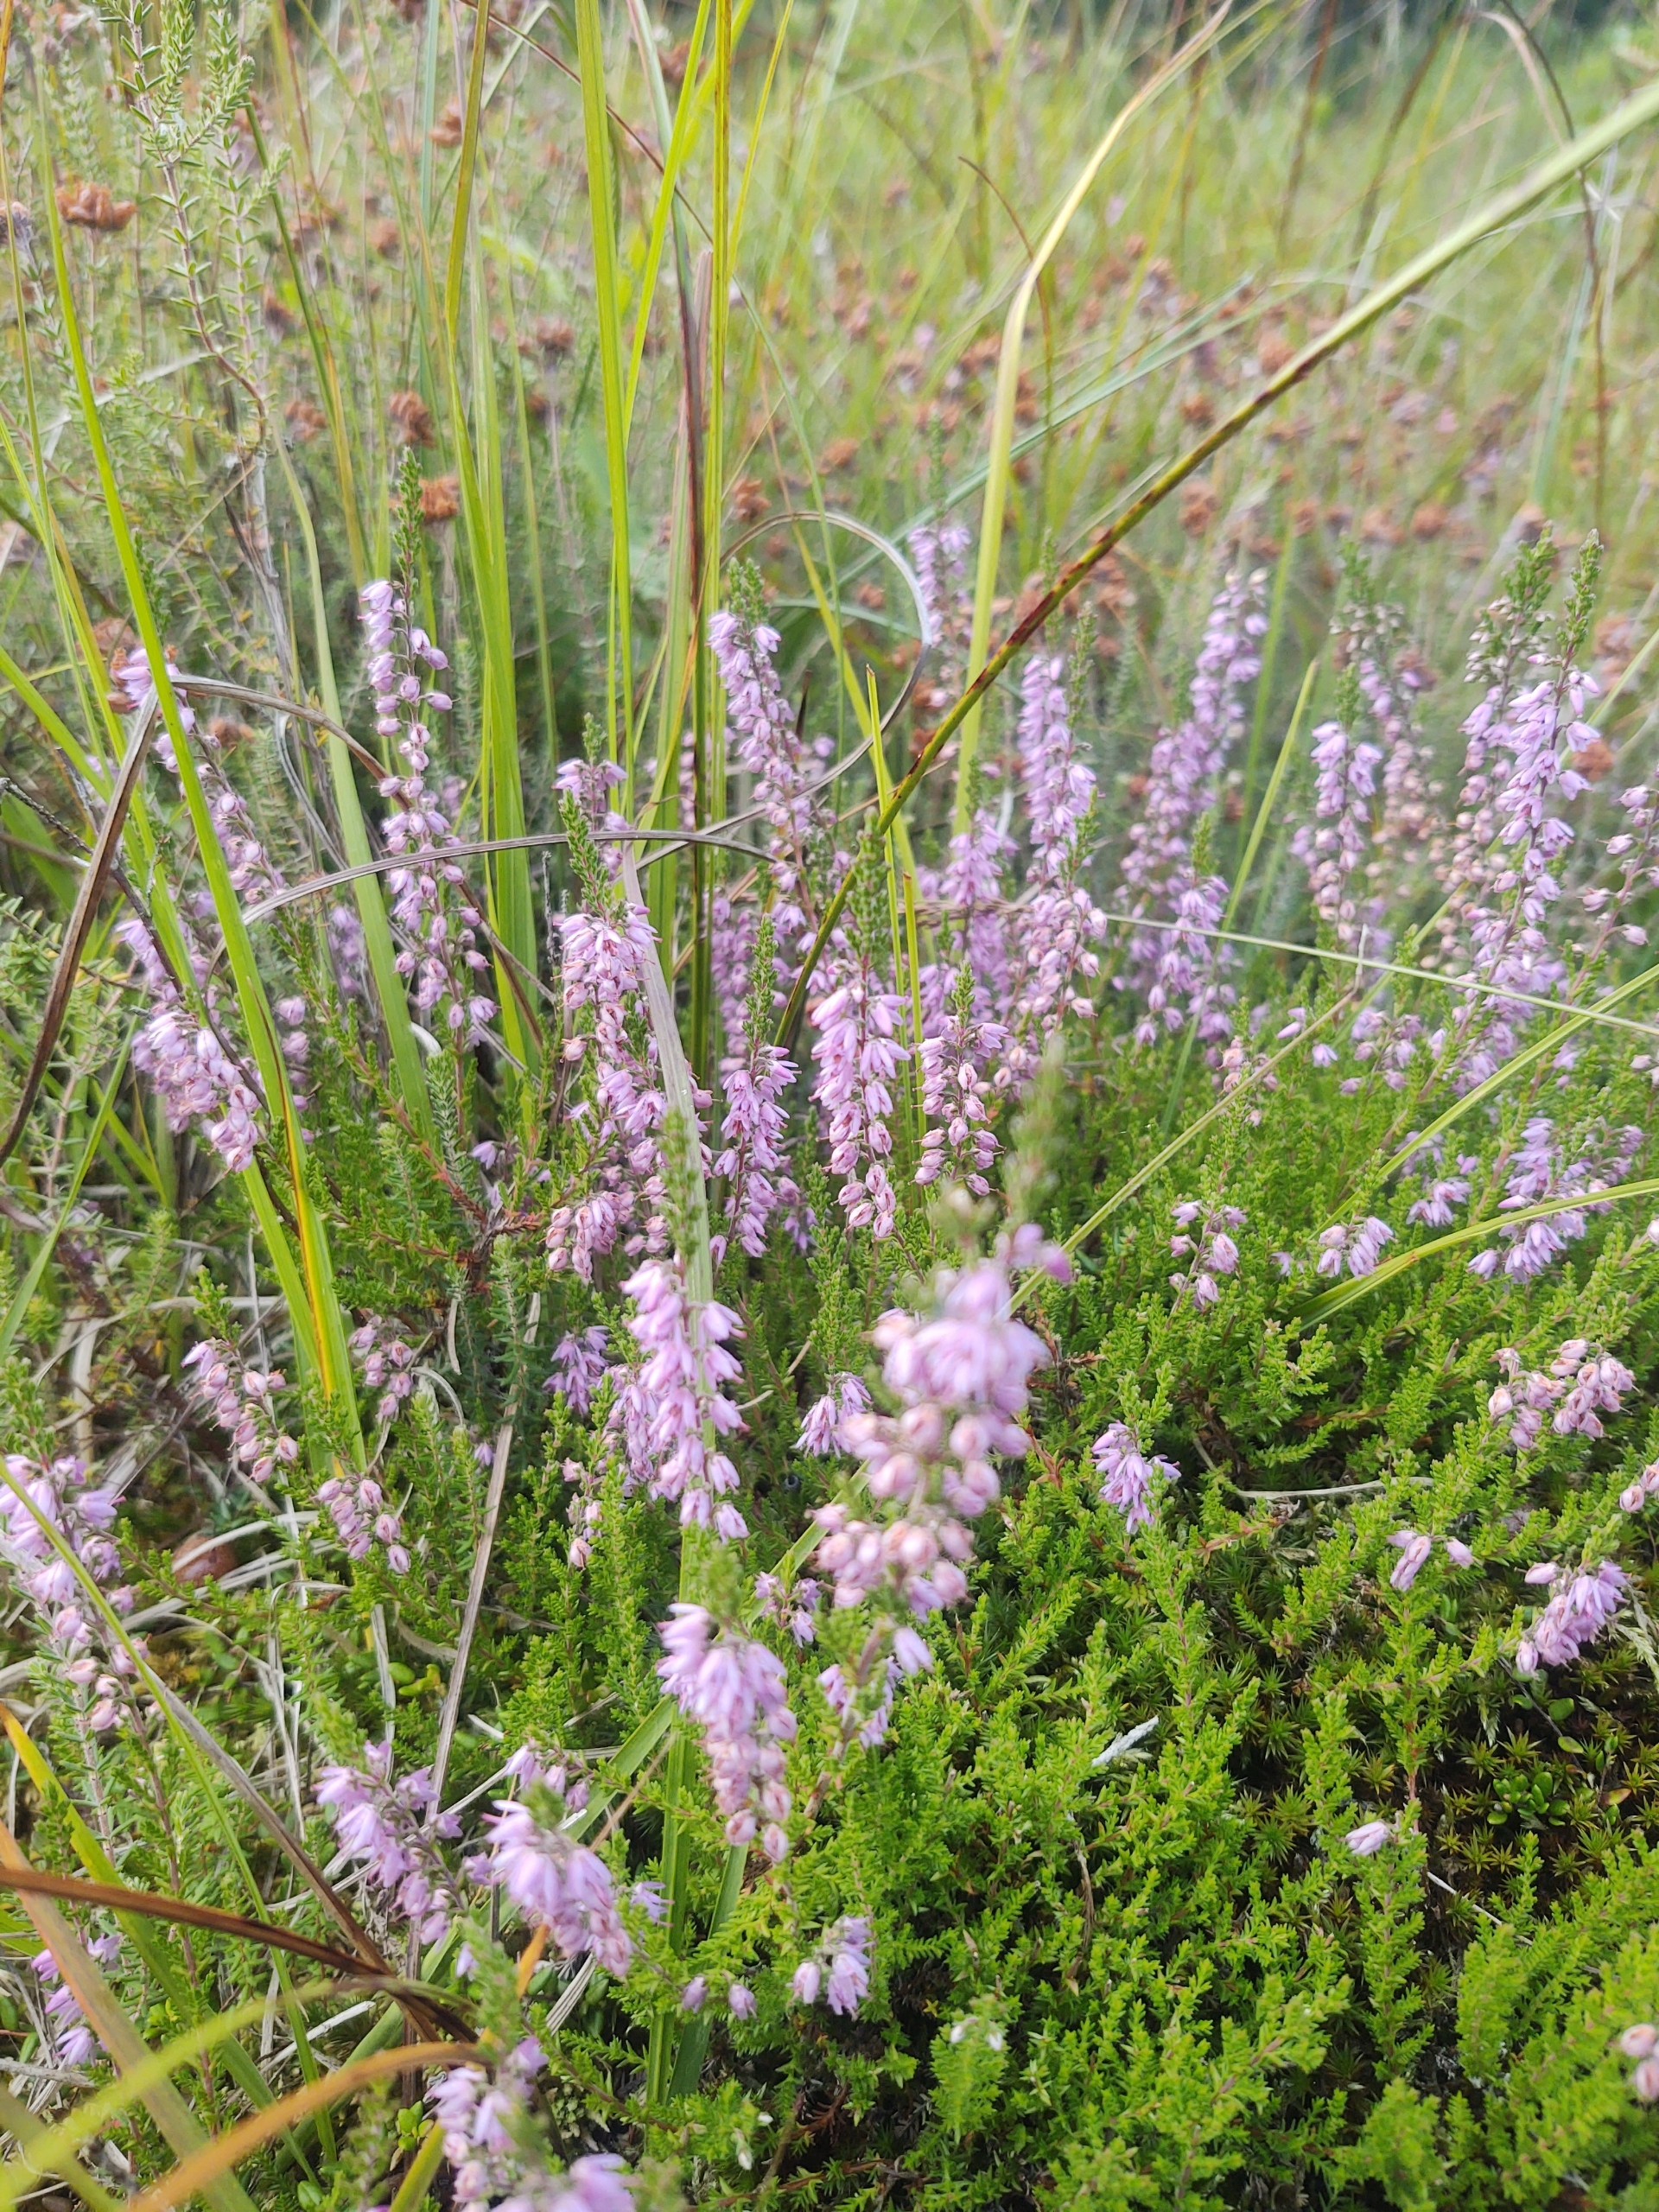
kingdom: Plantae
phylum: Tracheophyta
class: Magnoliopsida
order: Ericales
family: Ericaceae
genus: Calluna
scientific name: Calluna vulgaris
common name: Hedelyng
